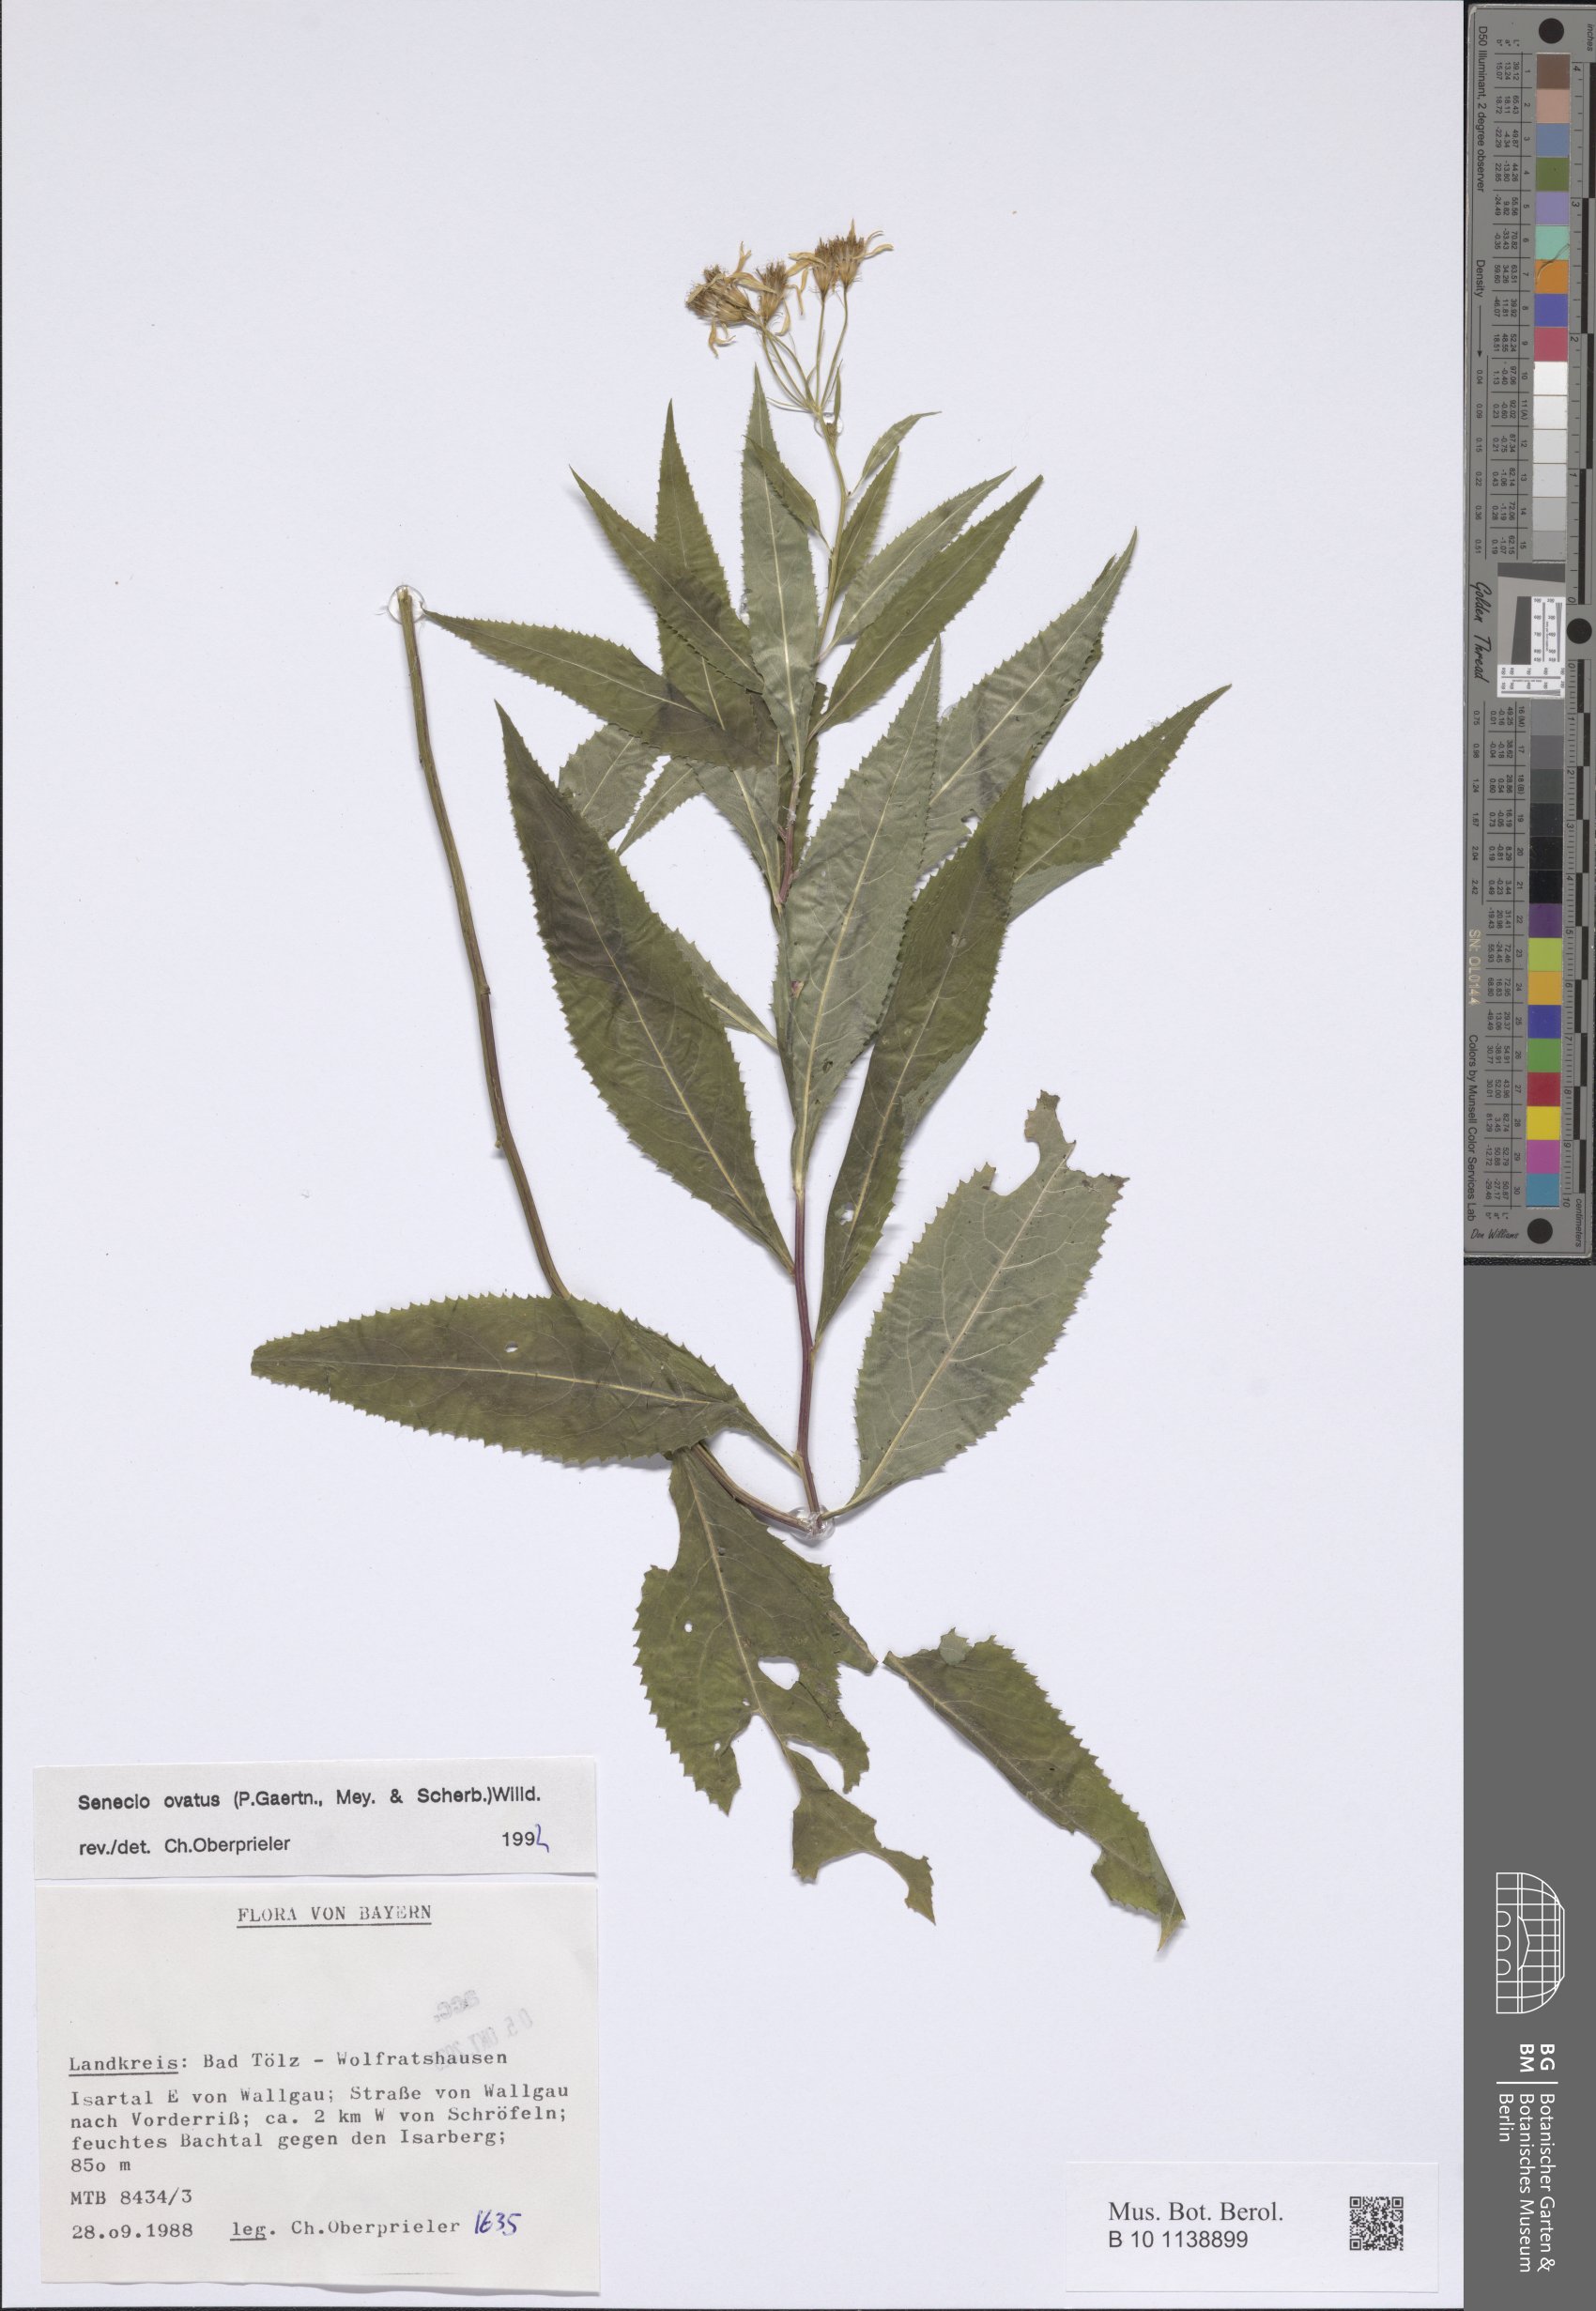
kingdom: Plantae
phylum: Tracheophyta
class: Magnoliopsida
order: Asterales
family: Asteraceae
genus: Senecio
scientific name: Senecio ovatus
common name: Wood ragwort
